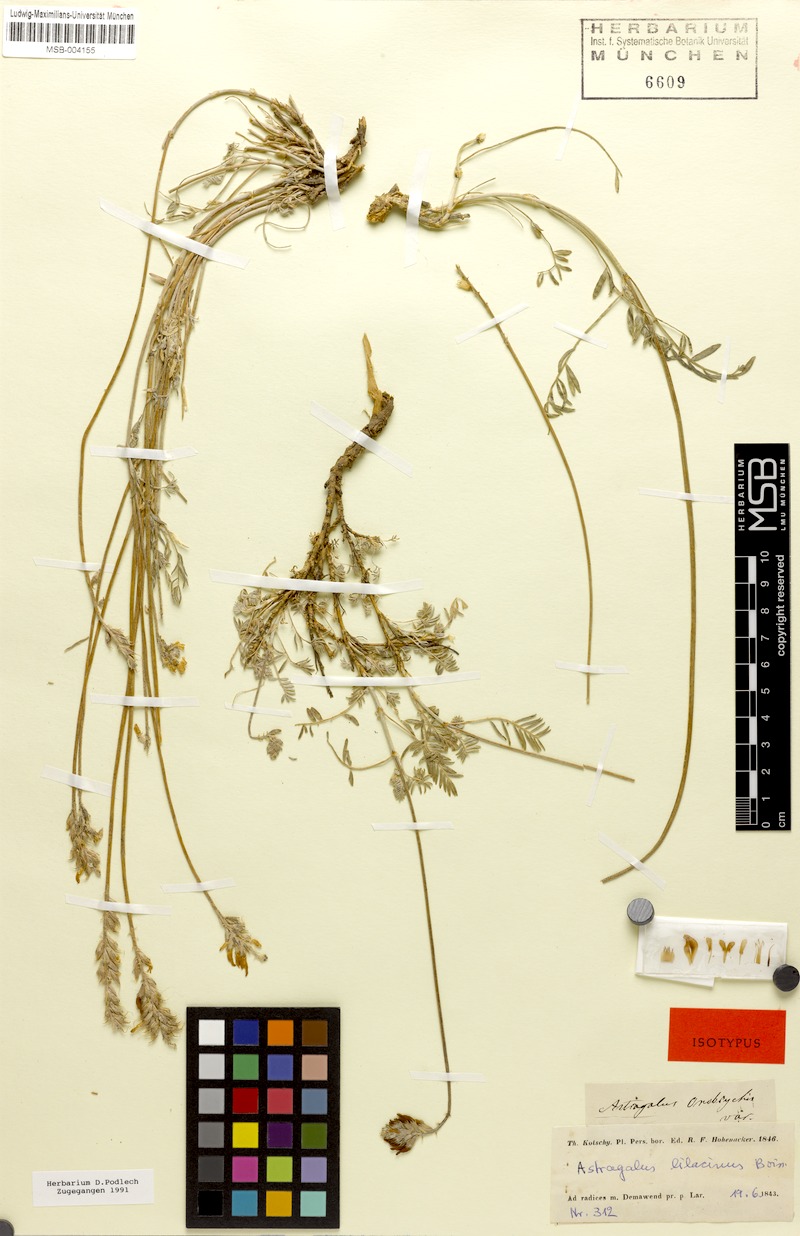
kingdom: Plantae
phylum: Tracheophyta
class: Magnoliopsida
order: Fabales
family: Fabaceae
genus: Astragalus
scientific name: Astragalus lilacinus
